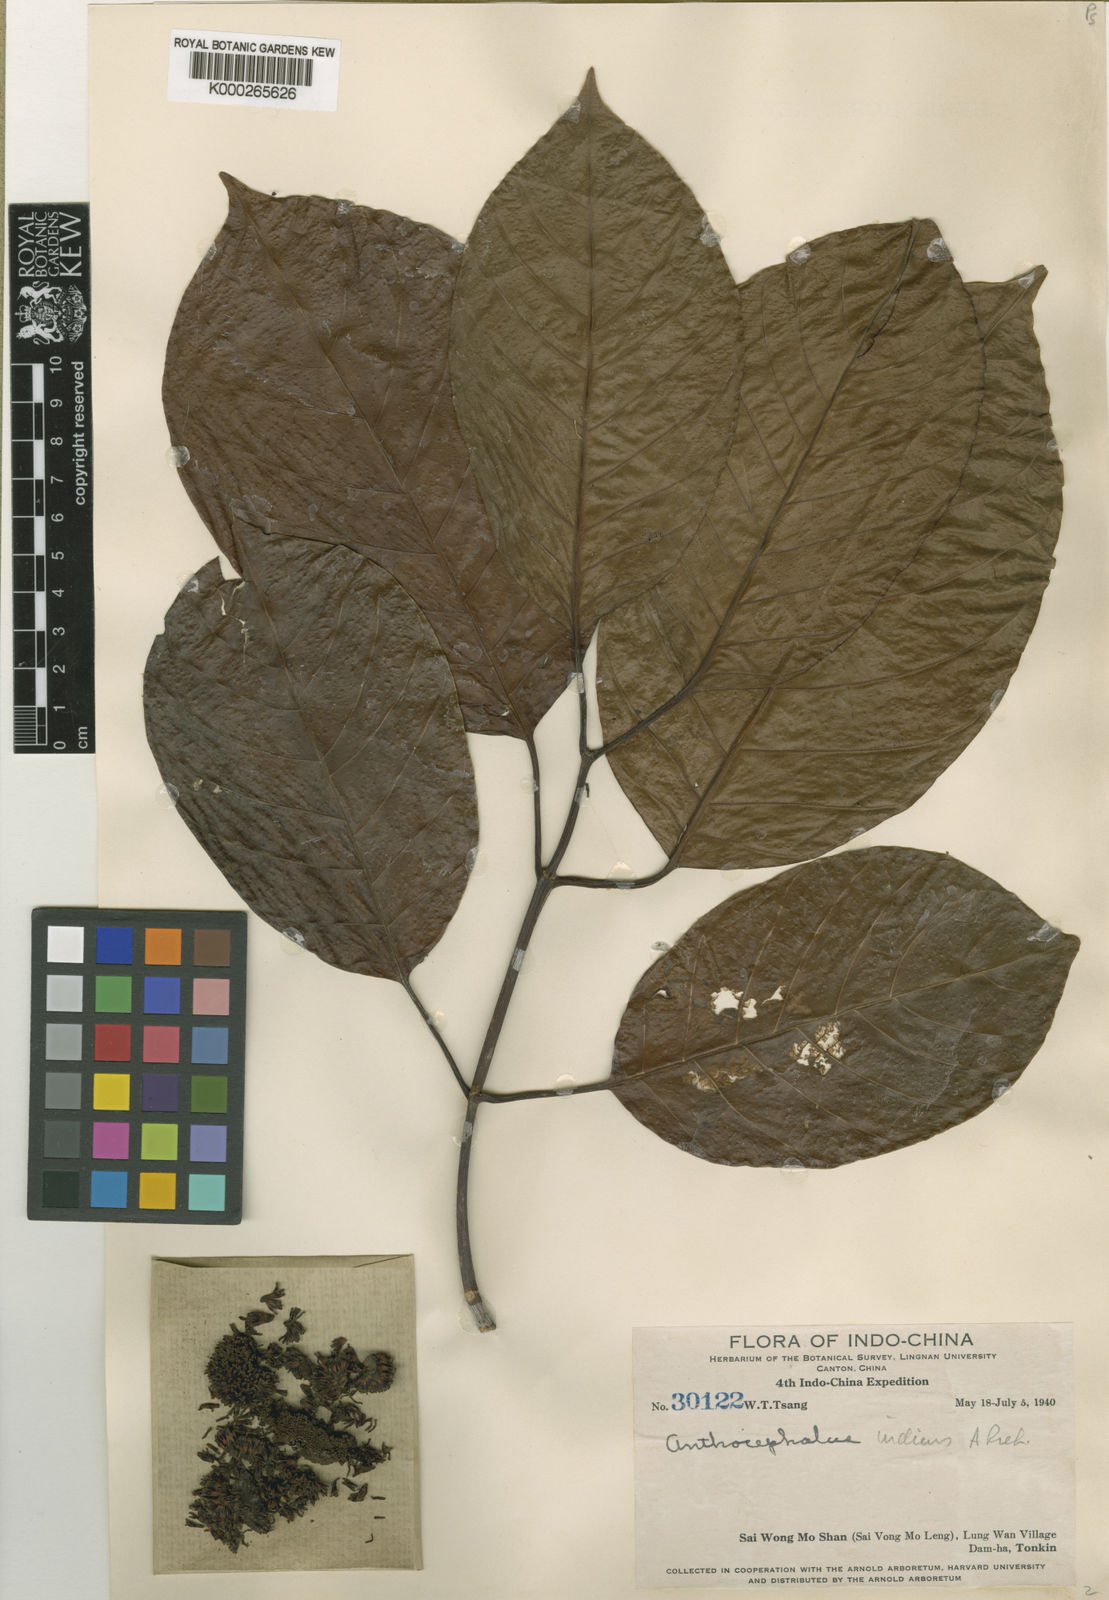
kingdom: Plantae
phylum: Tracheophyta
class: Magnoliopsida
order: Gentianales
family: Rubiaceae
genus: Neolamarckia
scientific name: Neolamarckia cadamba
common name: Leichhardt-pine
